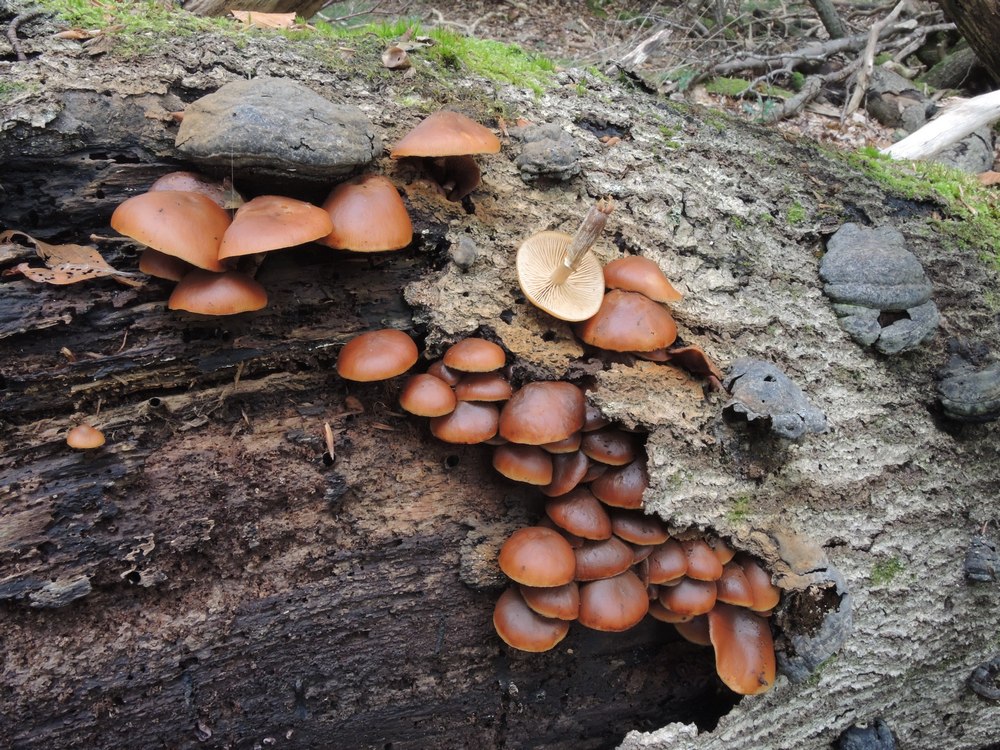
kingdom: Fungi
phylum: Basidiomycota
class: Agaricomycetes
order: Agaricales
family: Hymenogastraceae
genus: Galerina
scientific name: Galerina marginata
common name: randbæltet hjelmhat
